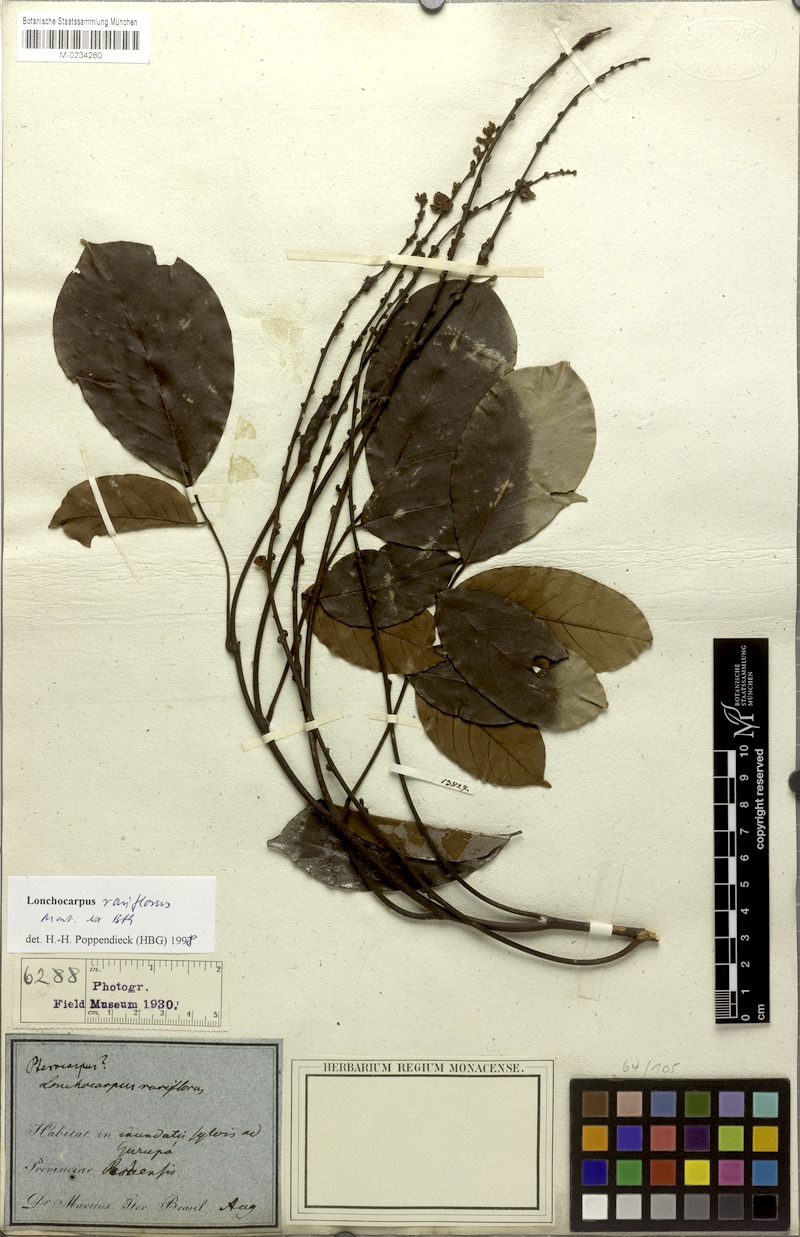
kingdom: Plantae
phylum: Tracheophyta
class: Magnoliopsida
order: Fabales
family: Fabaceae
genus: Deguelia
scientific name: Deguelia rariflora
